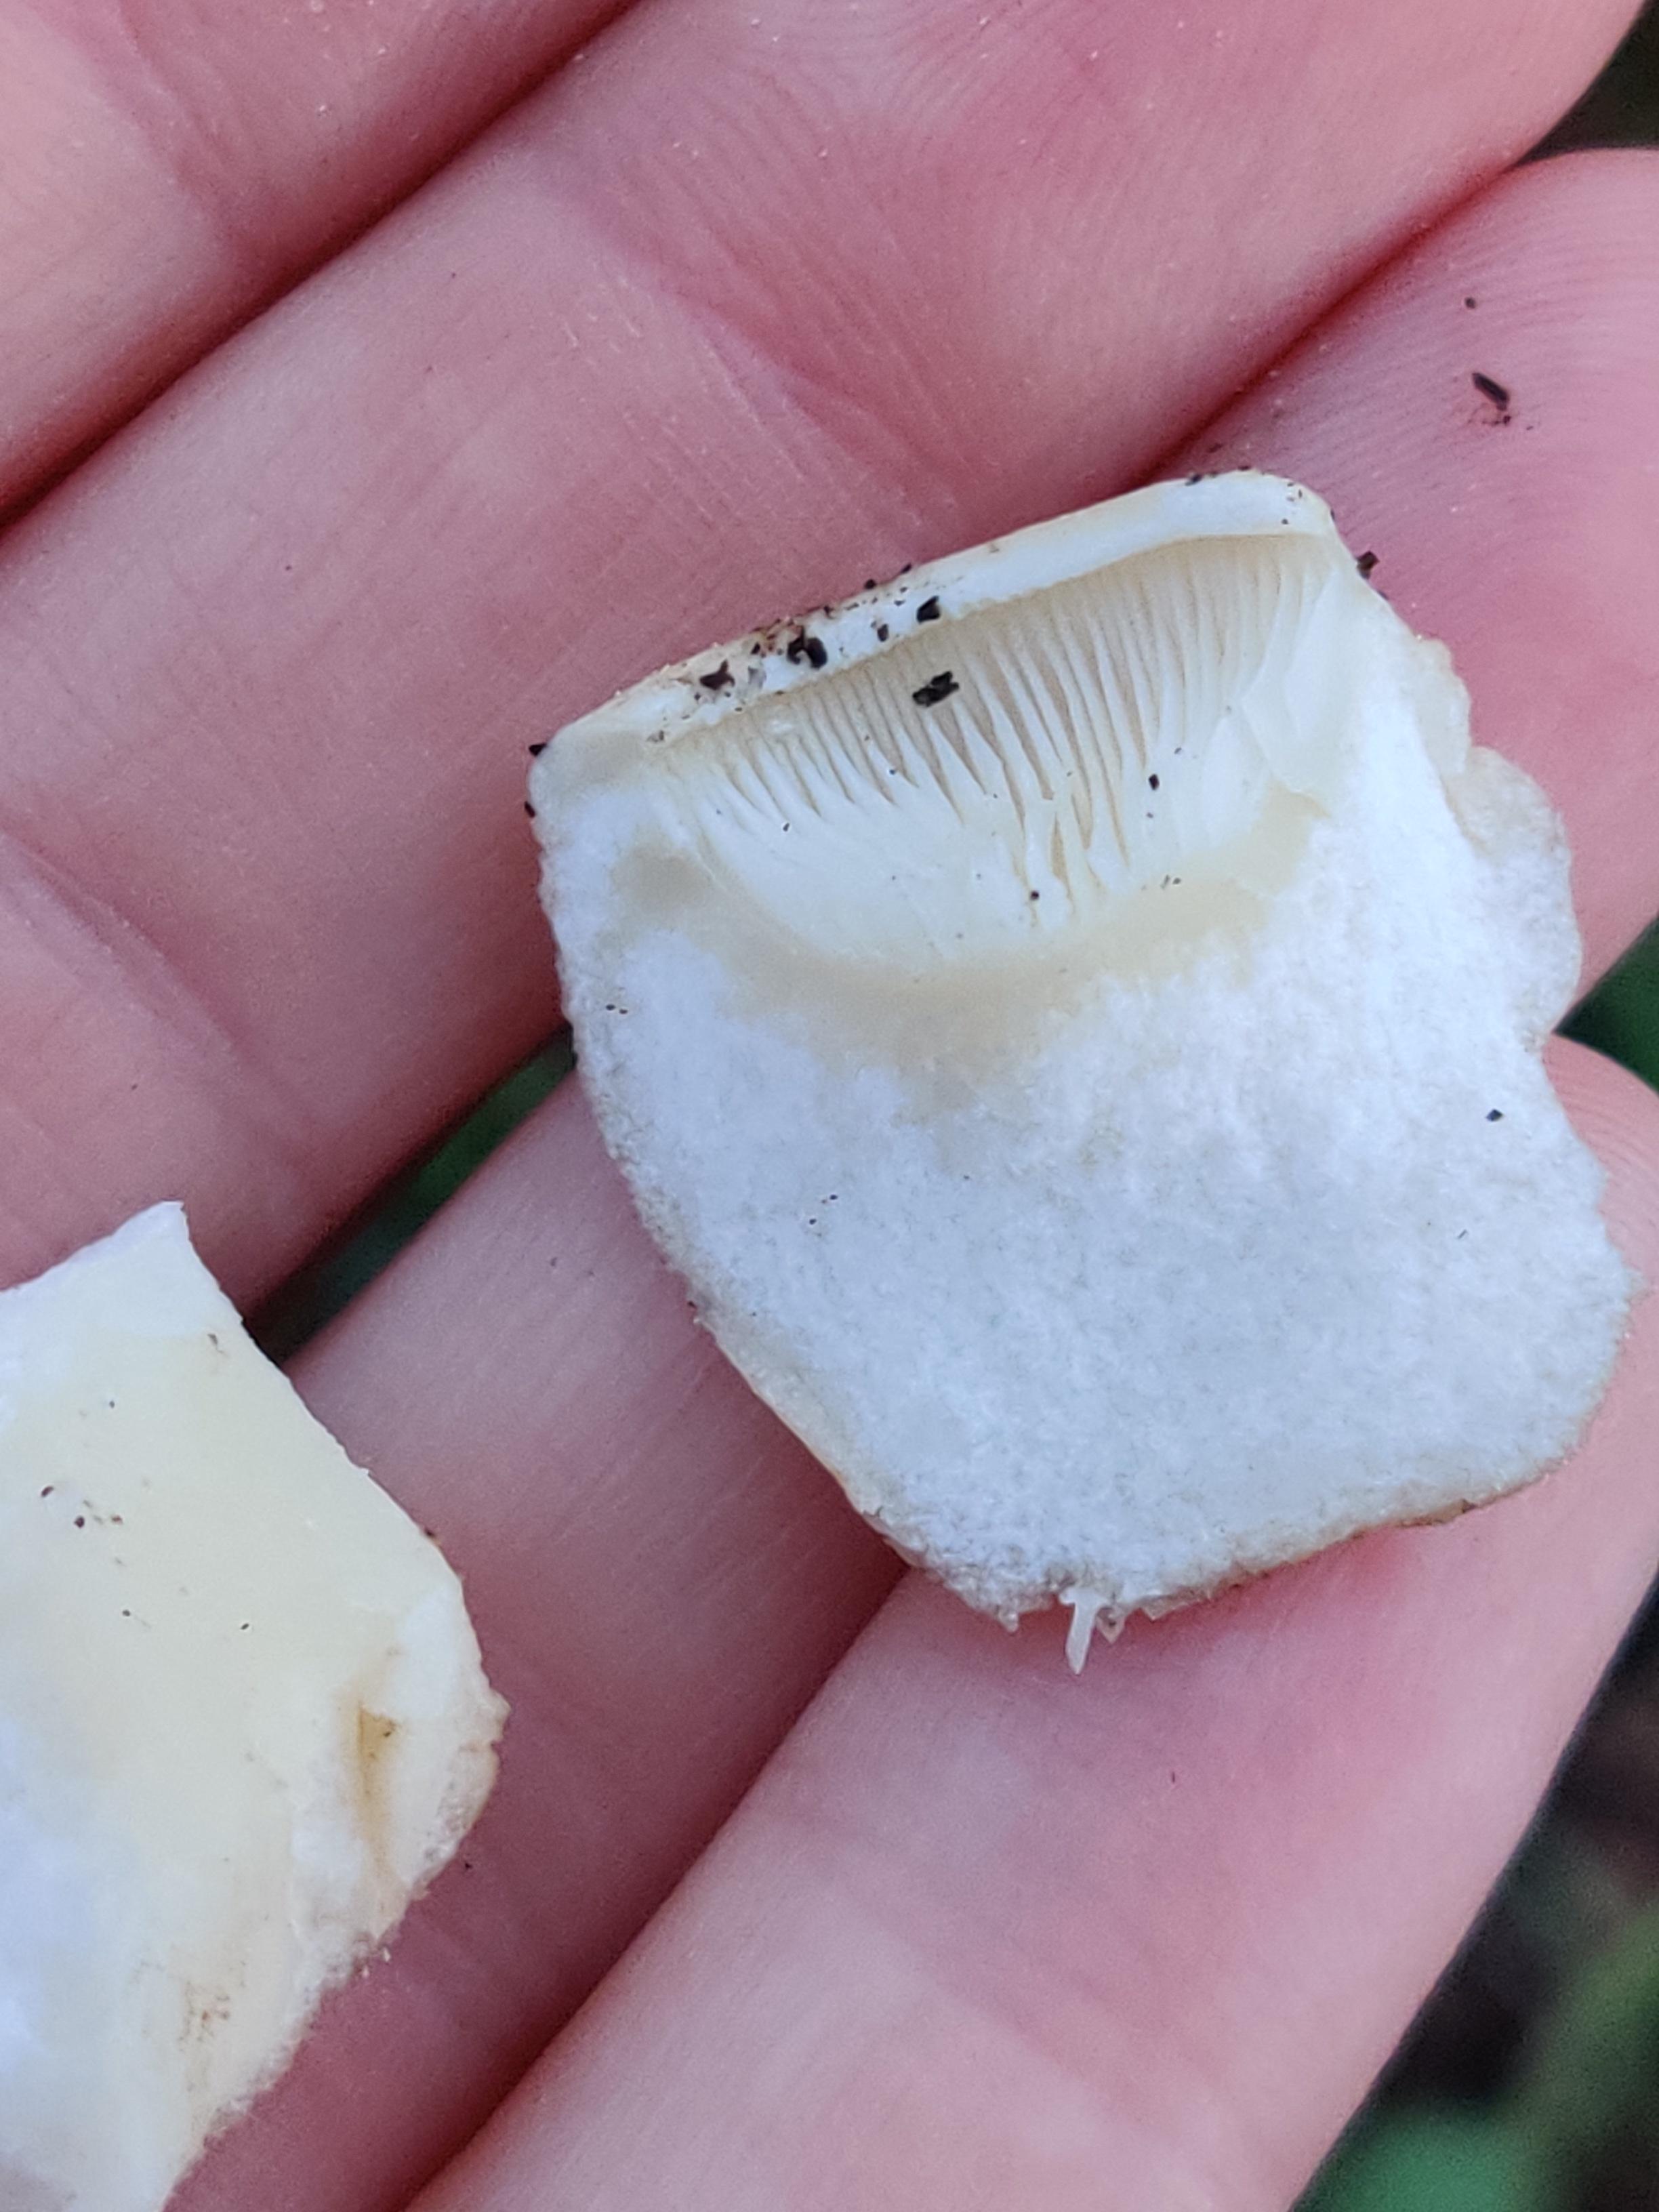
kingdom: Fungi
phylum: Basidiomycota
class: Agaricomycetes
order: Agaricales
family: Lyophyllaceae
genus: Calocybe
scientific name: Calocybe gambosa
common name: vårmusseron
